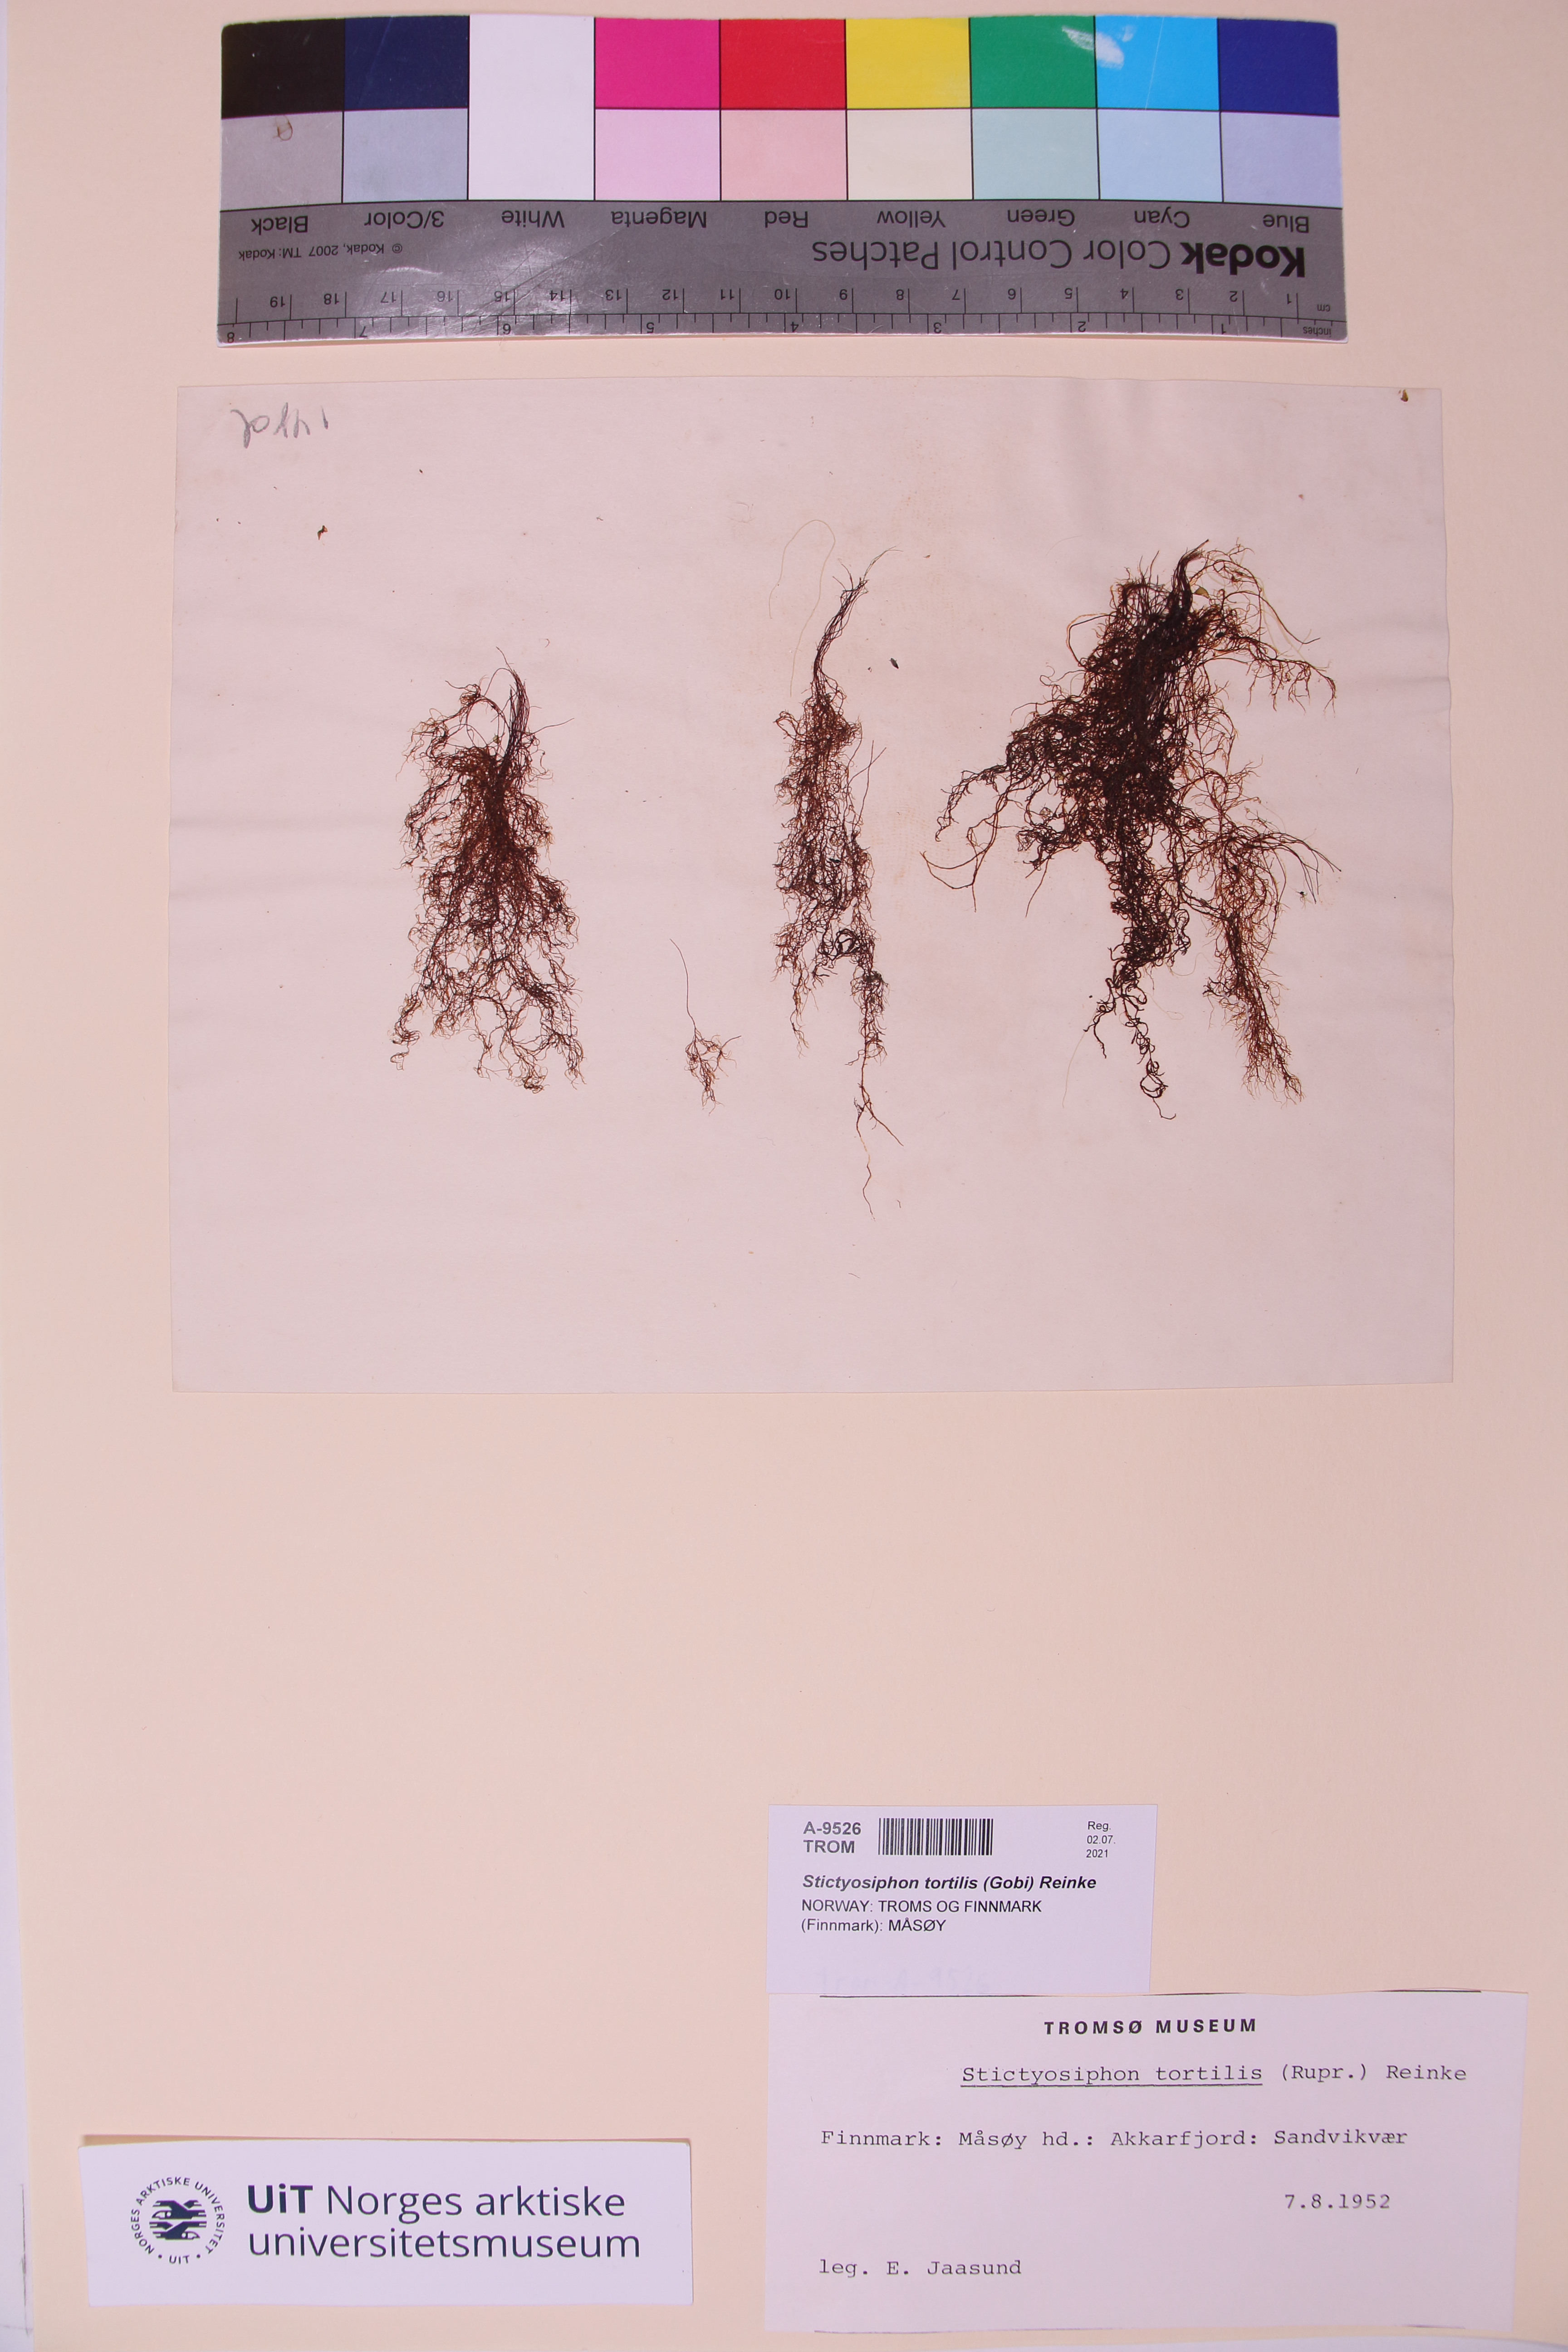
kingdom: Chromista
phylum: Ochrophyta
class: Phaeophyceae
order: Ectocarpales
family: Chordariaceae
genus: Stictyosiphon
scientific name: Stictyosiphon tortilis
